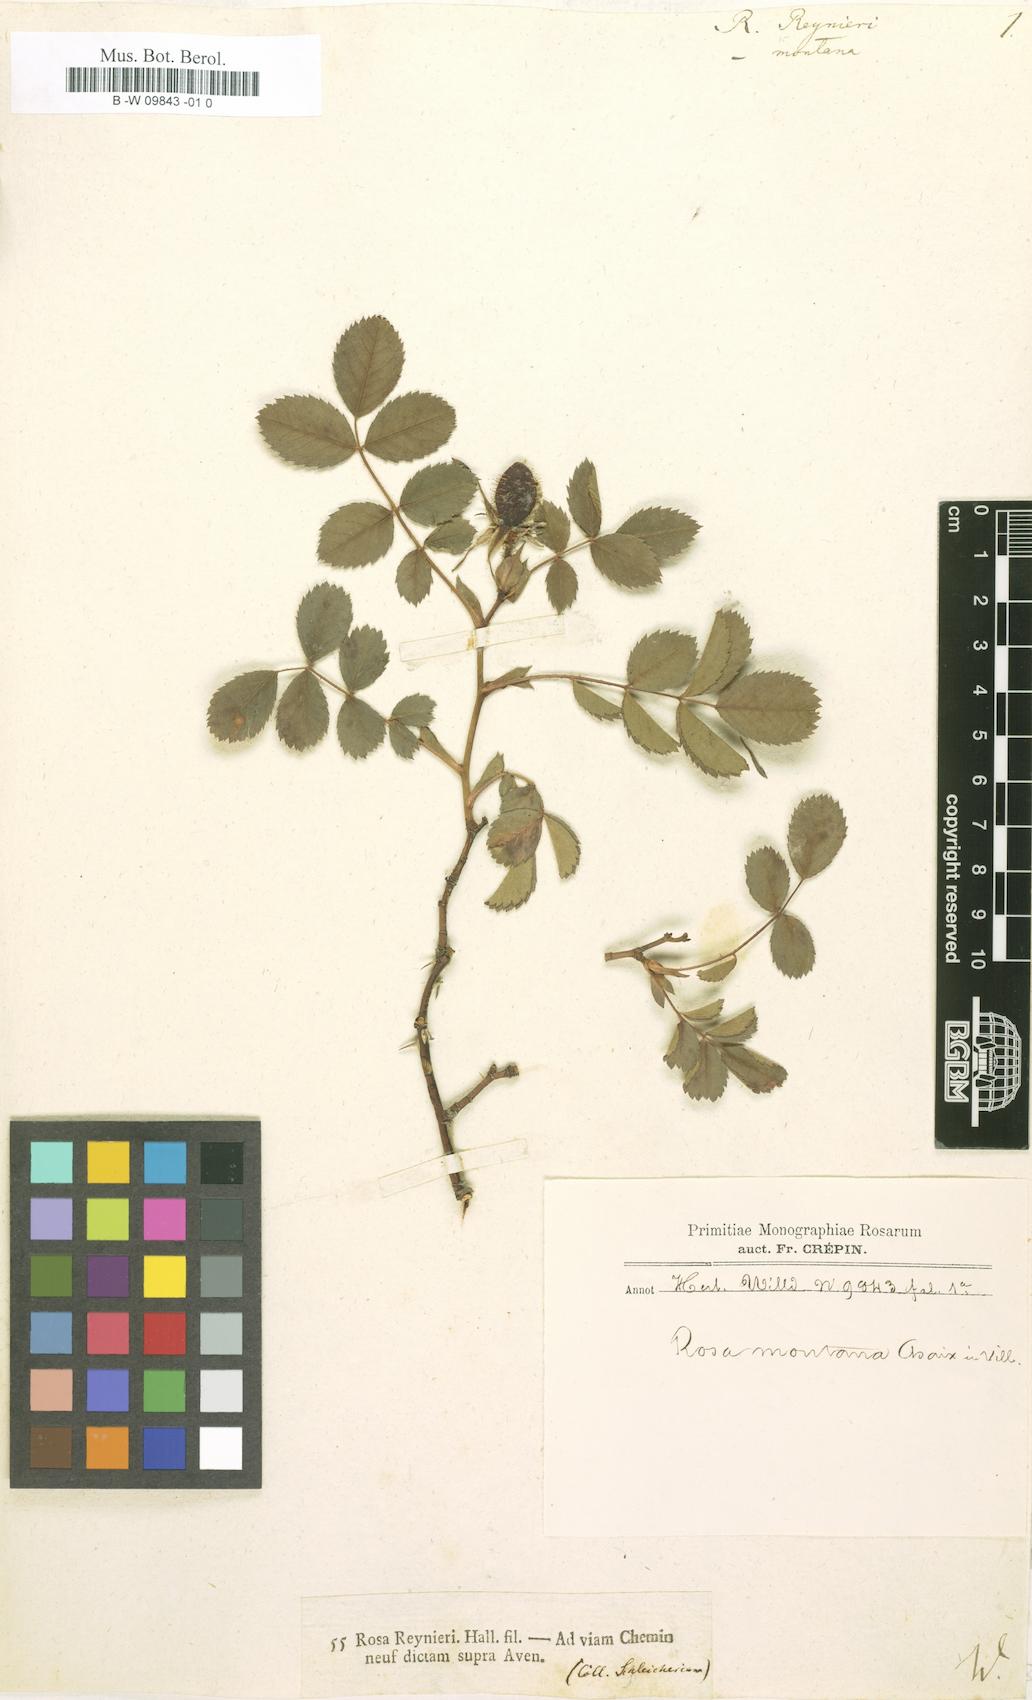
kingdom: Plantae
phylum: Tracheophyta
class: Magnoliopsida
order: Rosales
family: Rosaceae
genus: Rosa
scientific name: Rosa montana
